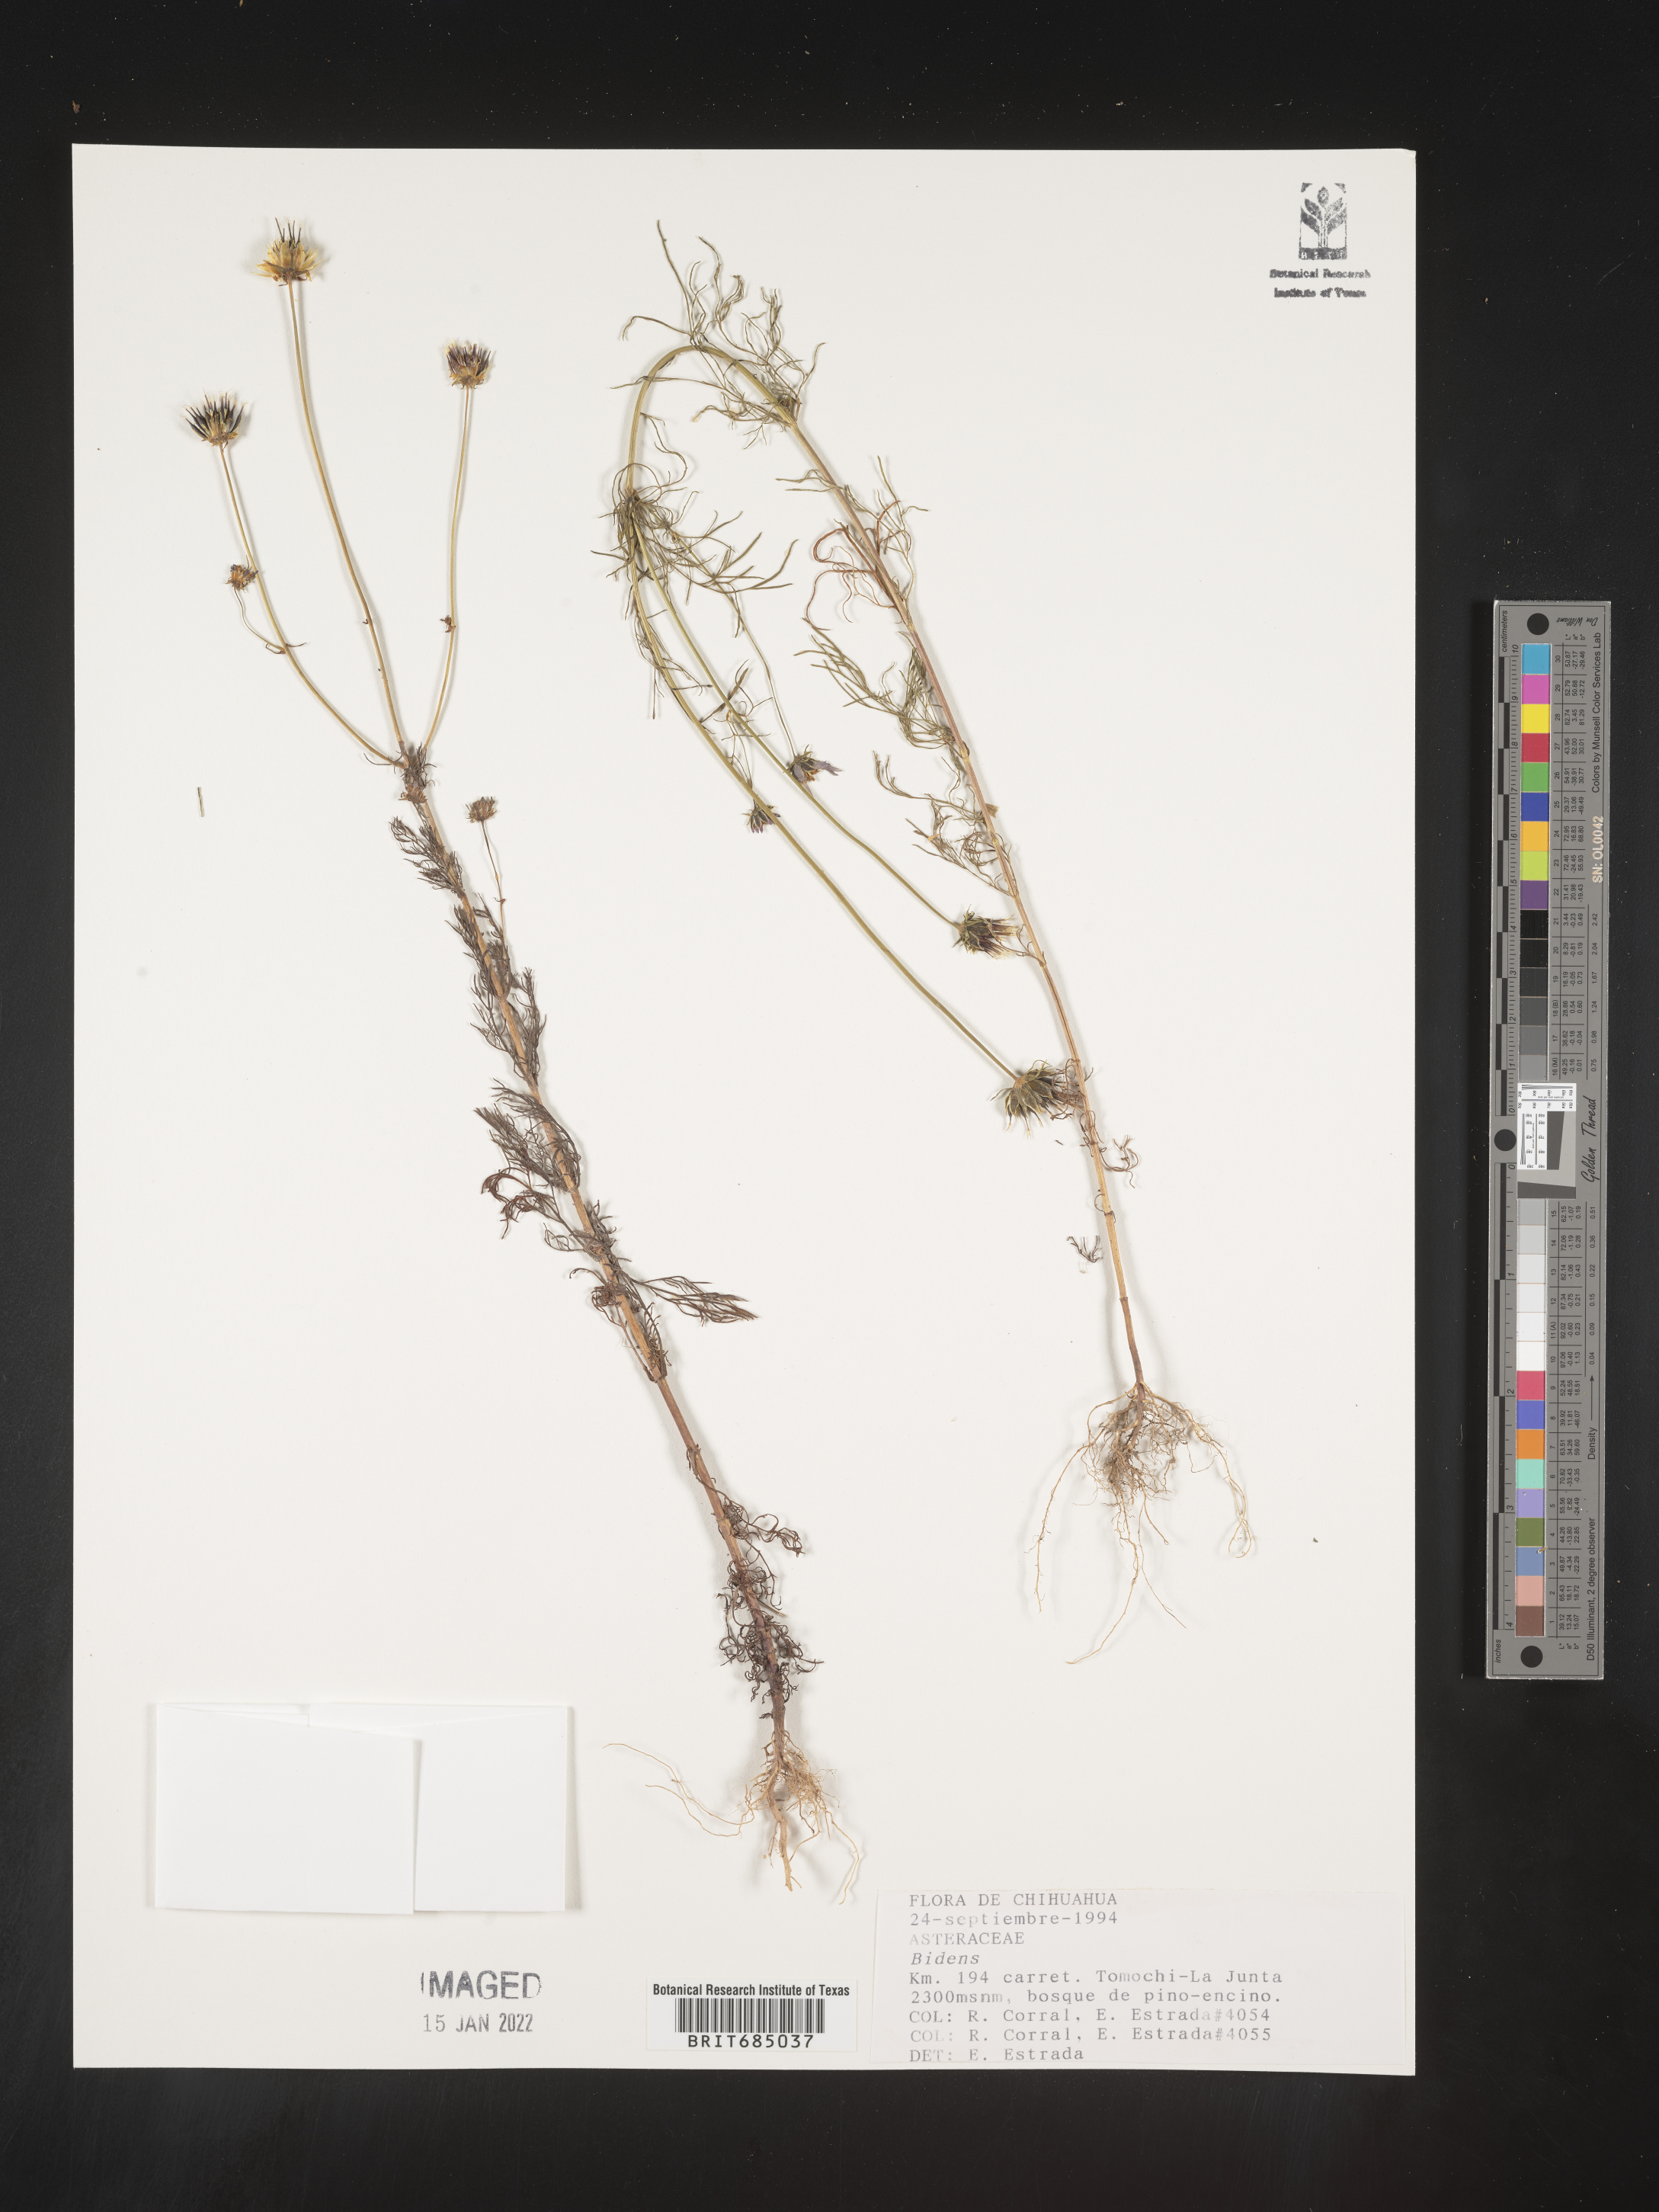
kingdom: Plantae
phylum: Tracheophyta
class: Magnoliopsida
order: Asterales
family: Asteraceae
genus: Bidens
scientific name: Bidens
